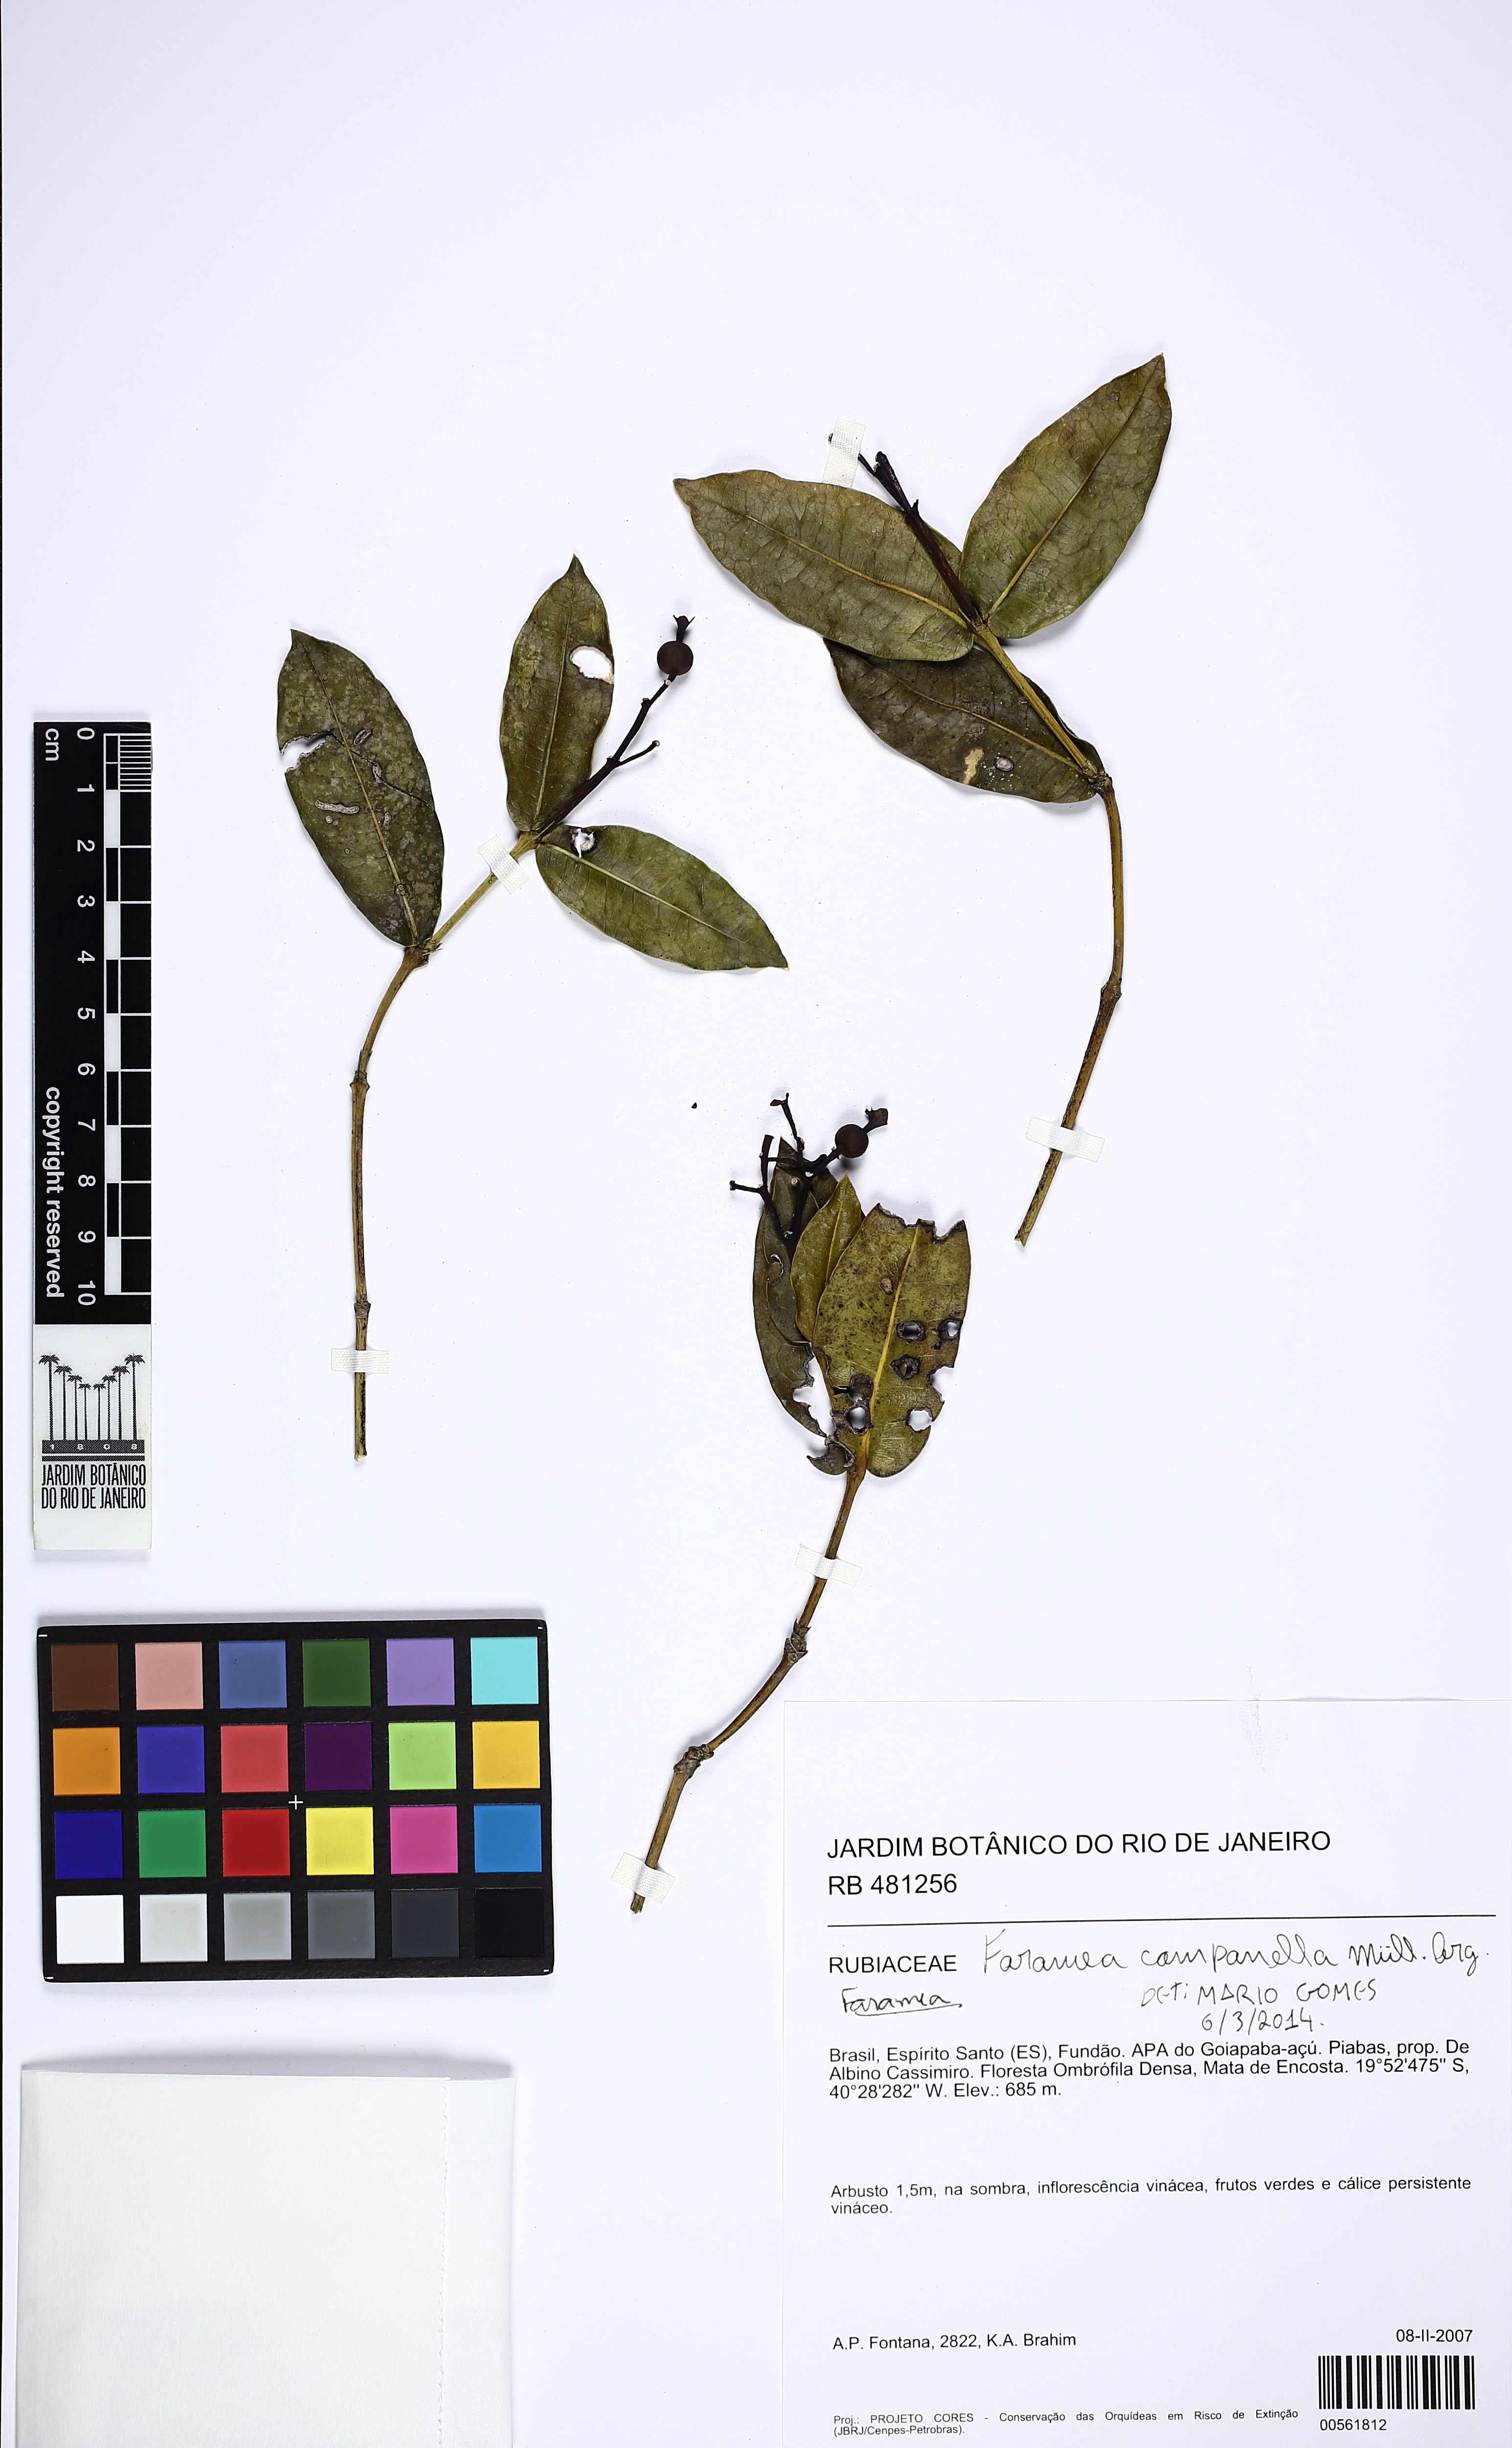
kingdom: Plantae
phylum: Tracheophyta
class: Magnoliopsida
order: Gentianales
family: Rubiaceae
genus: Faramea
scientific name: Faramea campanella
